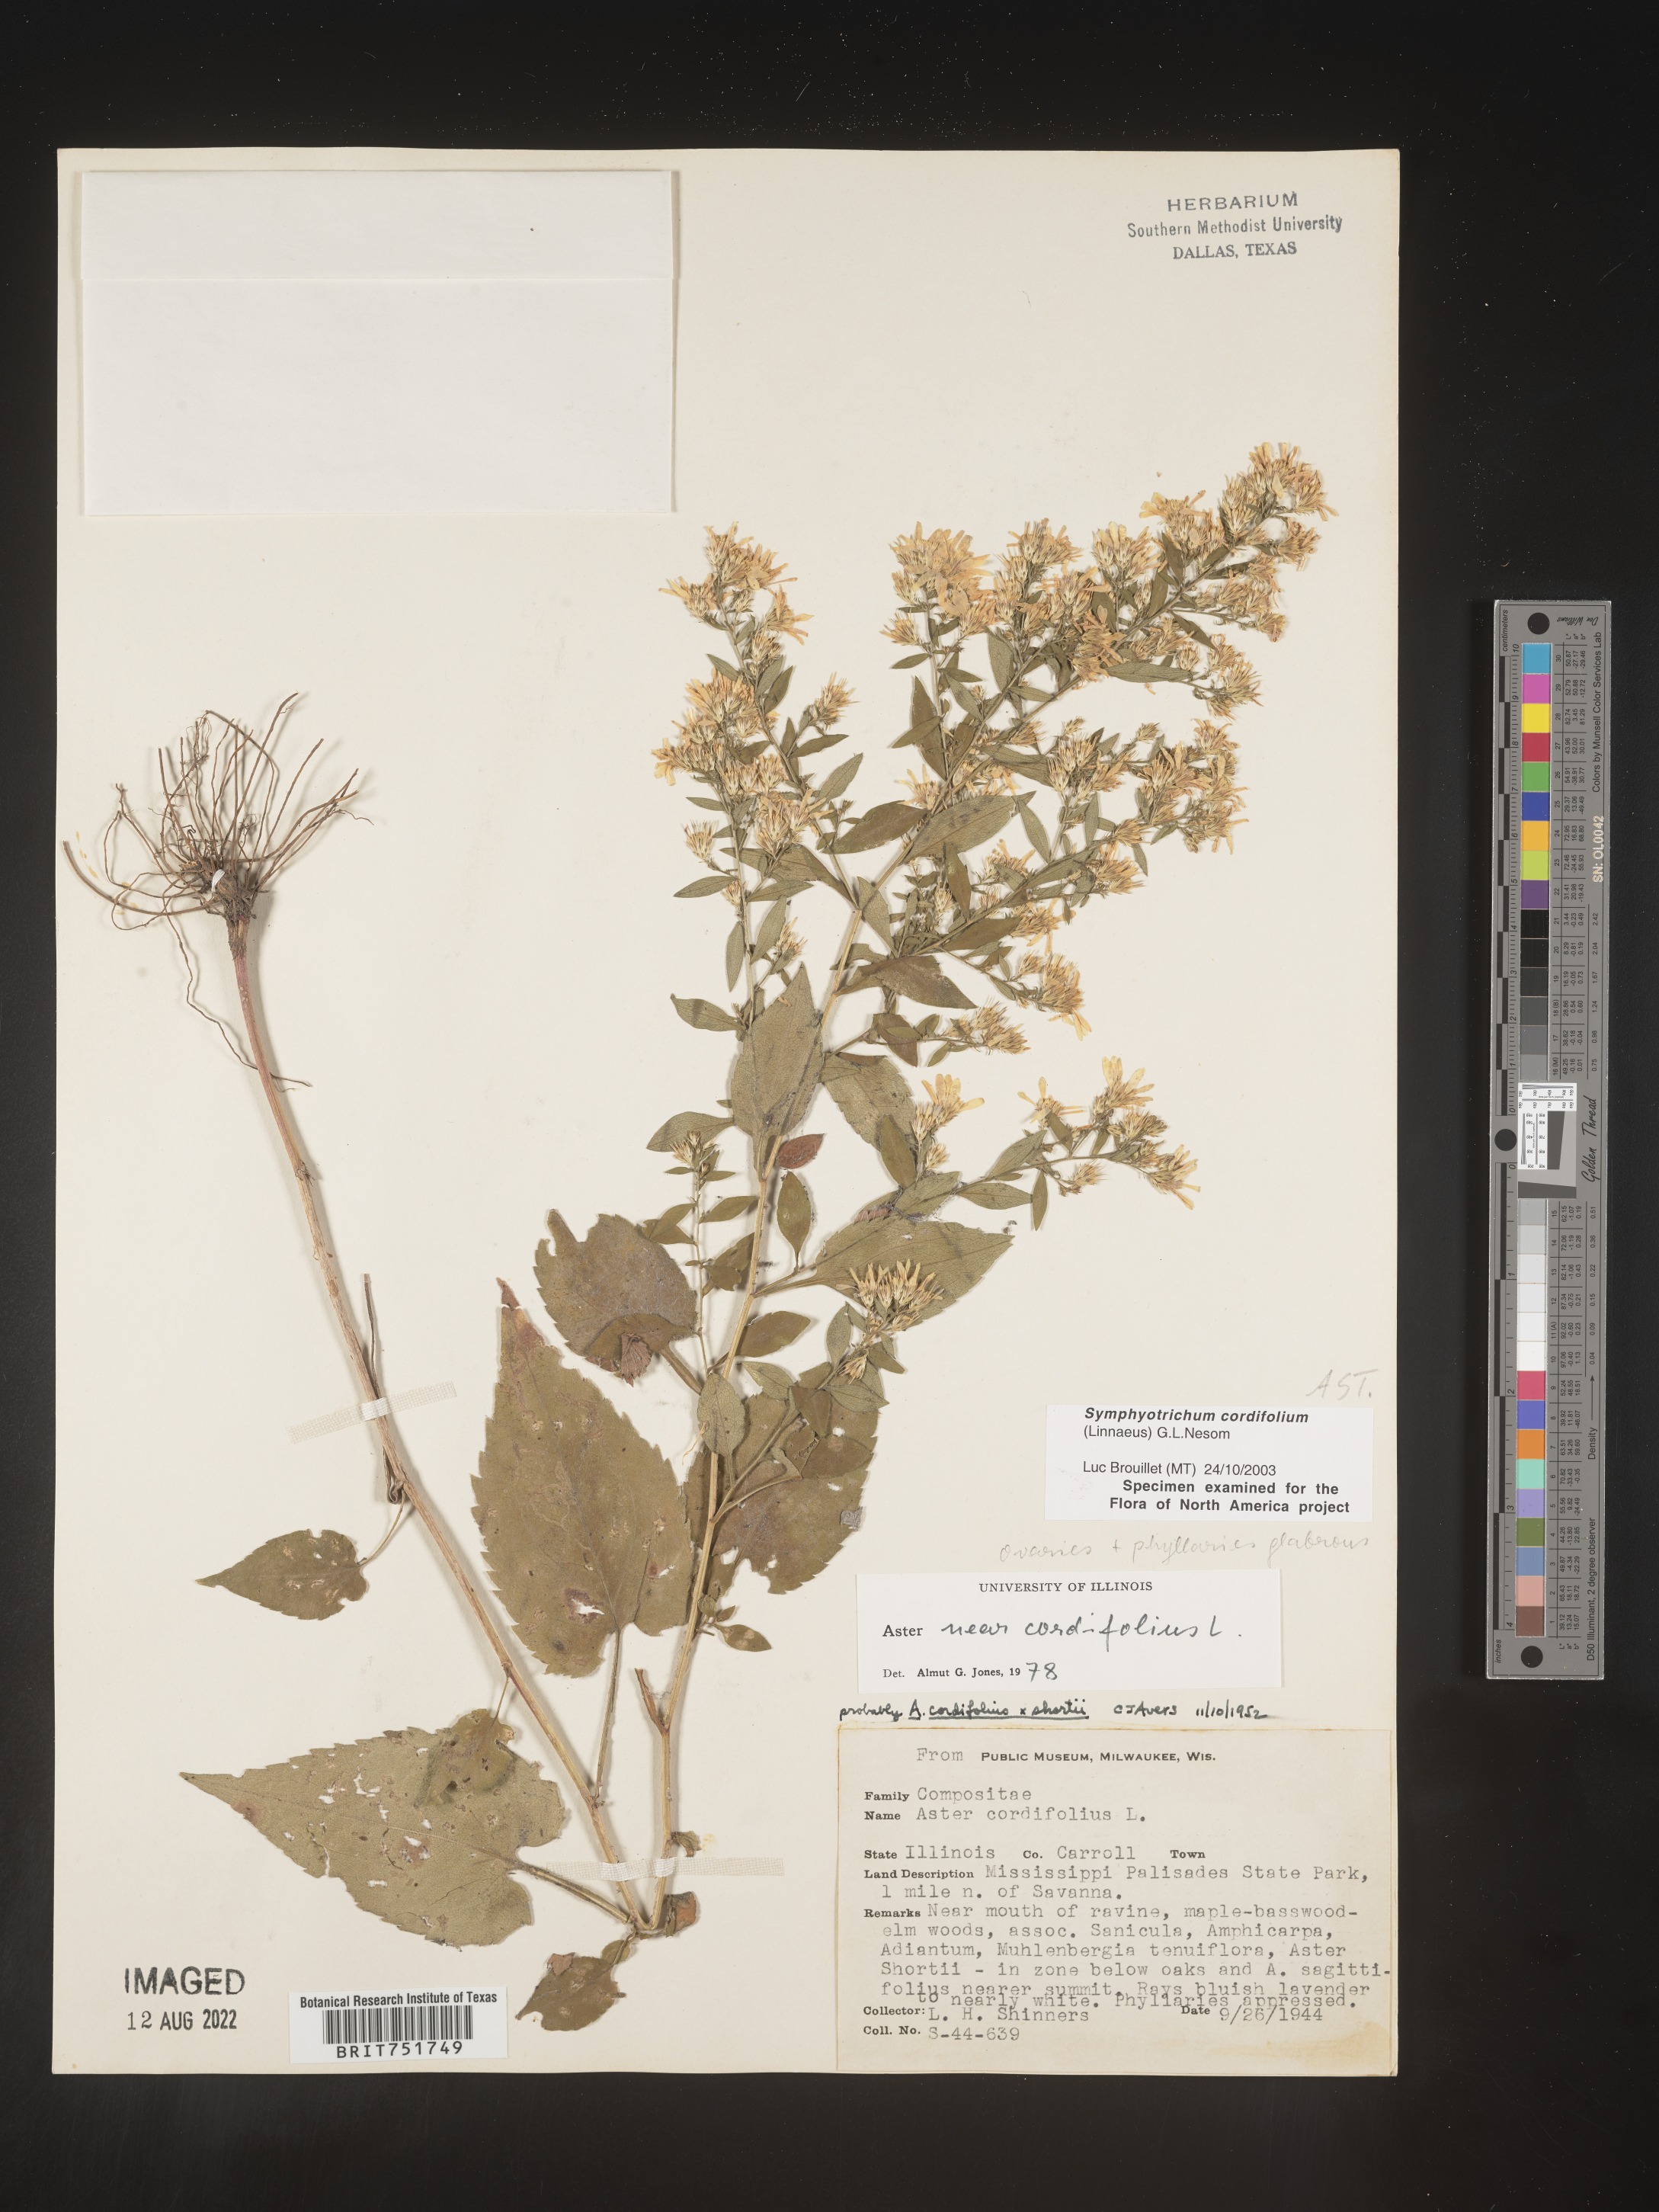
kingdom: Plantae
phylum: Tracheophyta
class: Magnoliopsida
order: Asterales
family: Asteraceae
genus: Symphyotrichum
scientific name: Symphyotrichum cordifolium
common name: Beeweed
